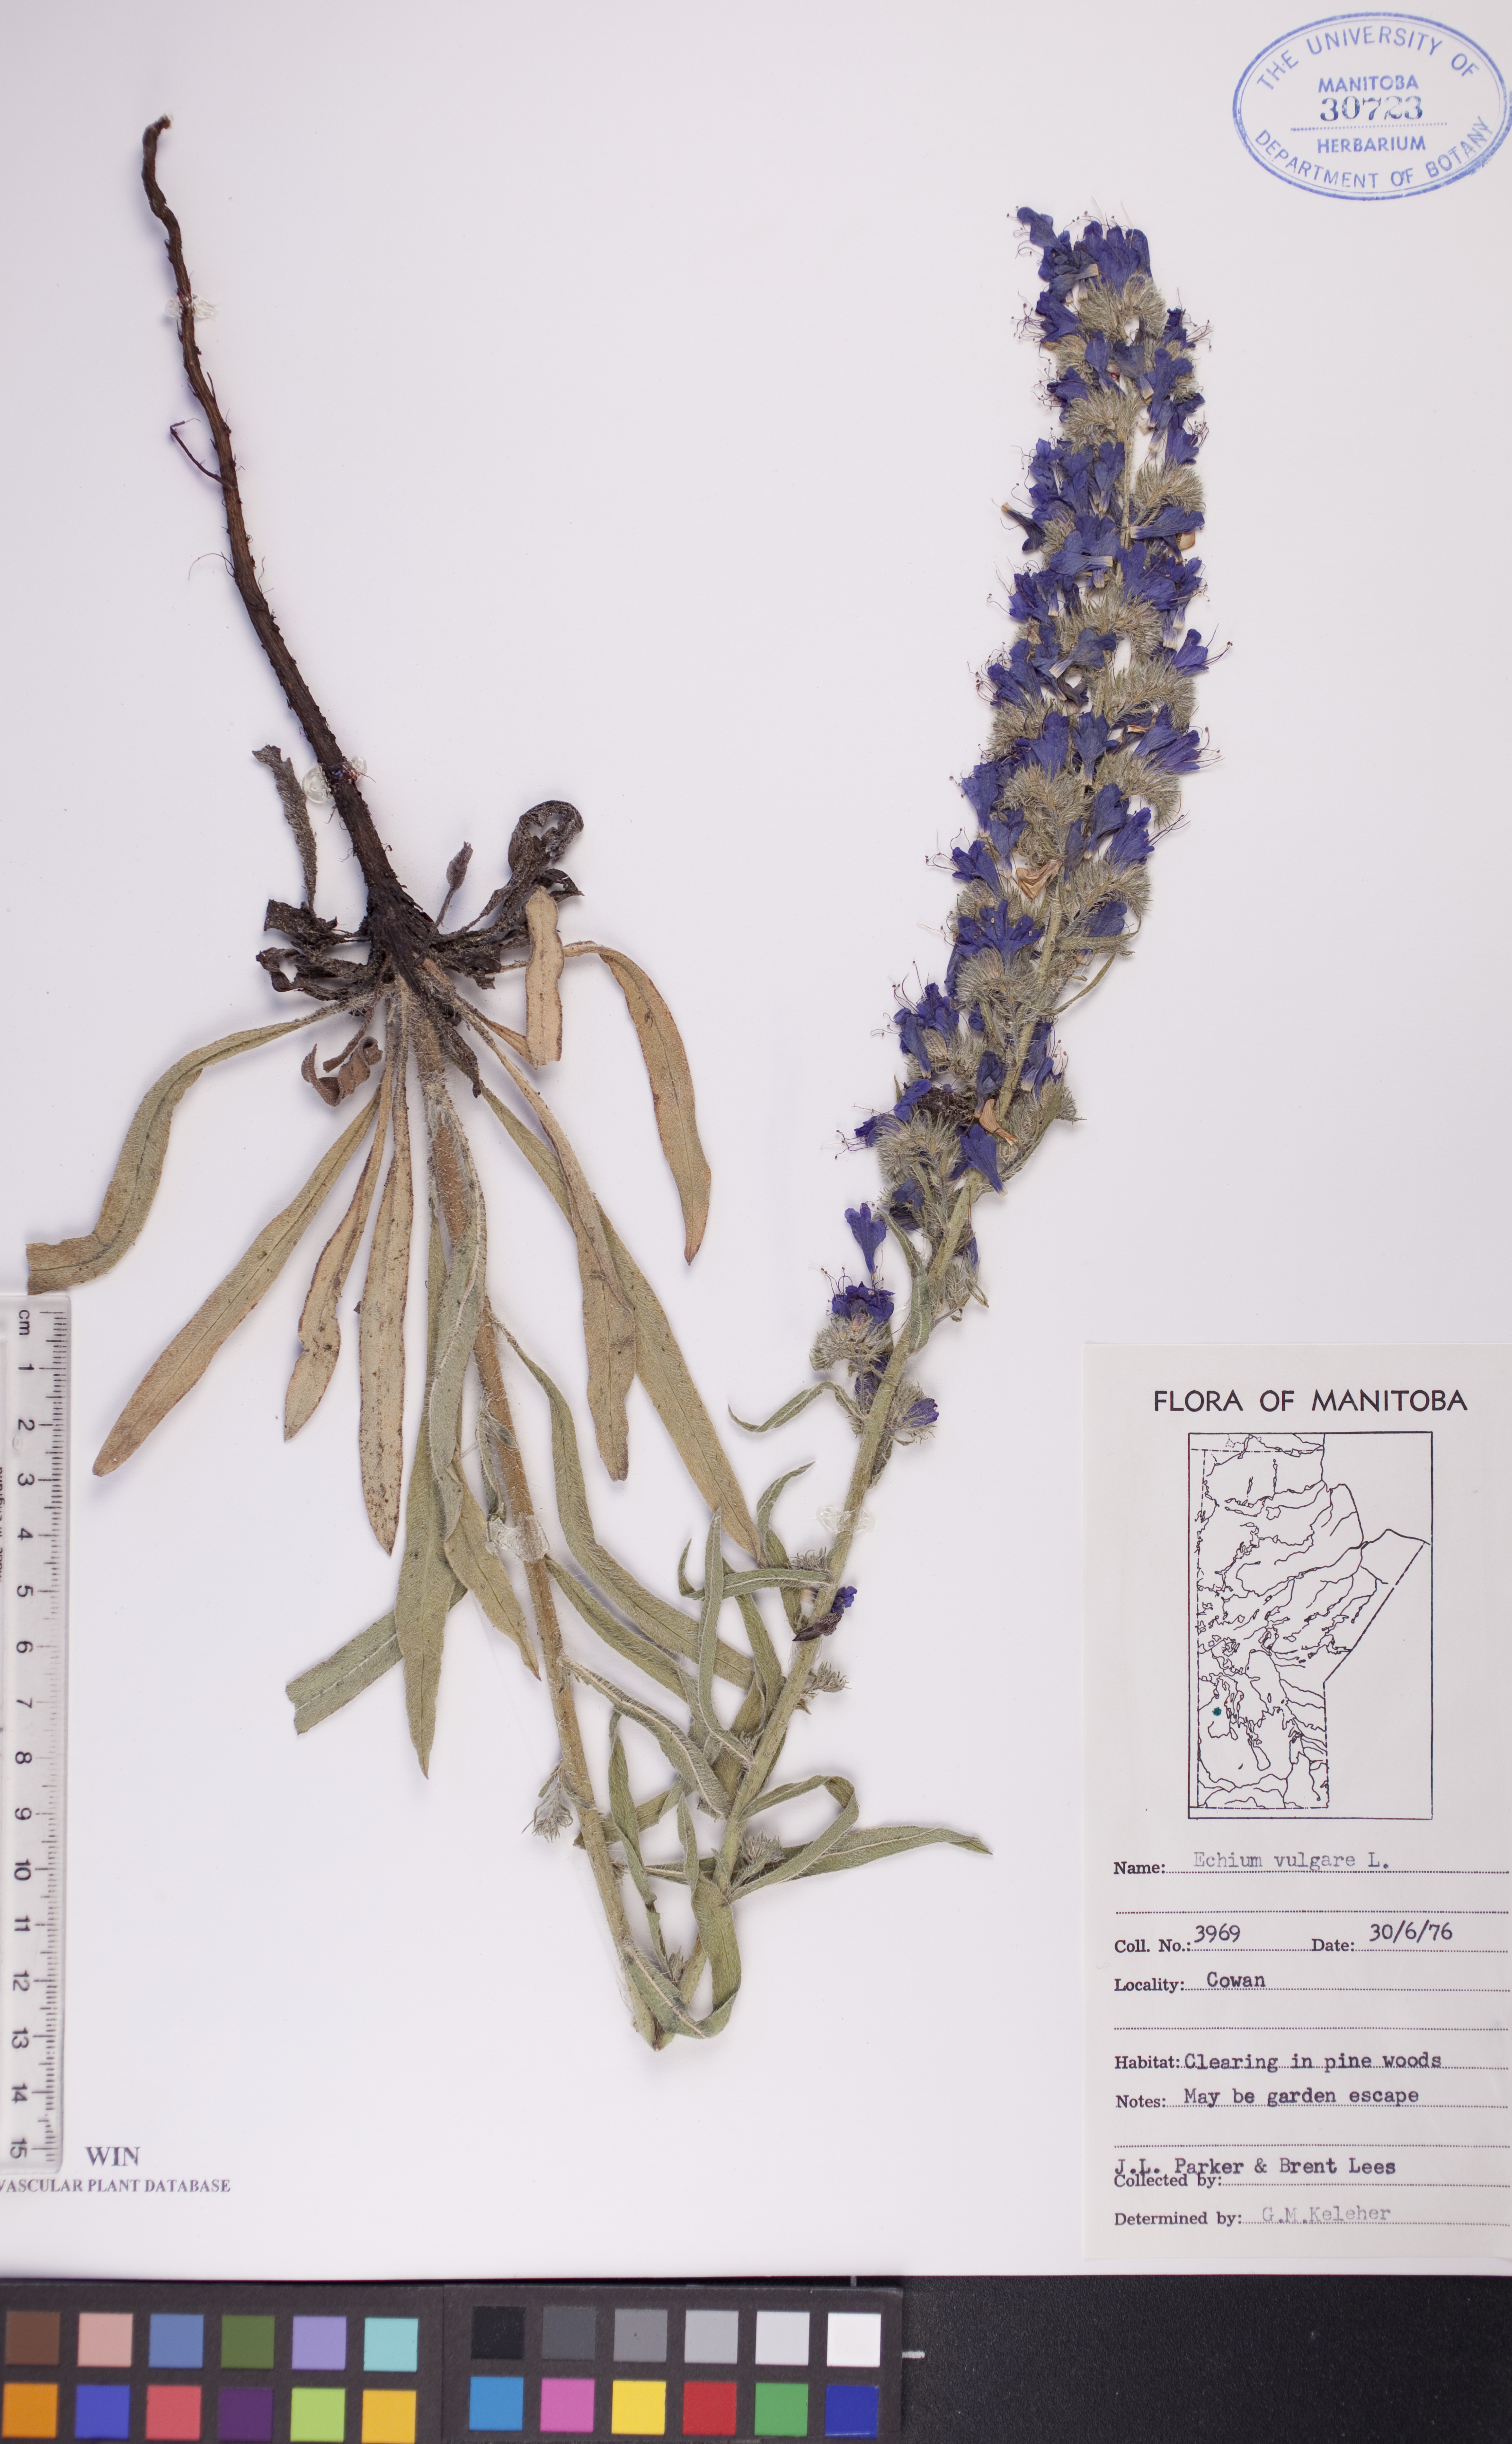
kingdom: Plantae
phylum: Tracheophyta
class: Magnoliopsida
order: Boraginales
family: Boraginaceae
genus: Echium
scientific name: Echium vulgare
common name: Common viper's bugloss
